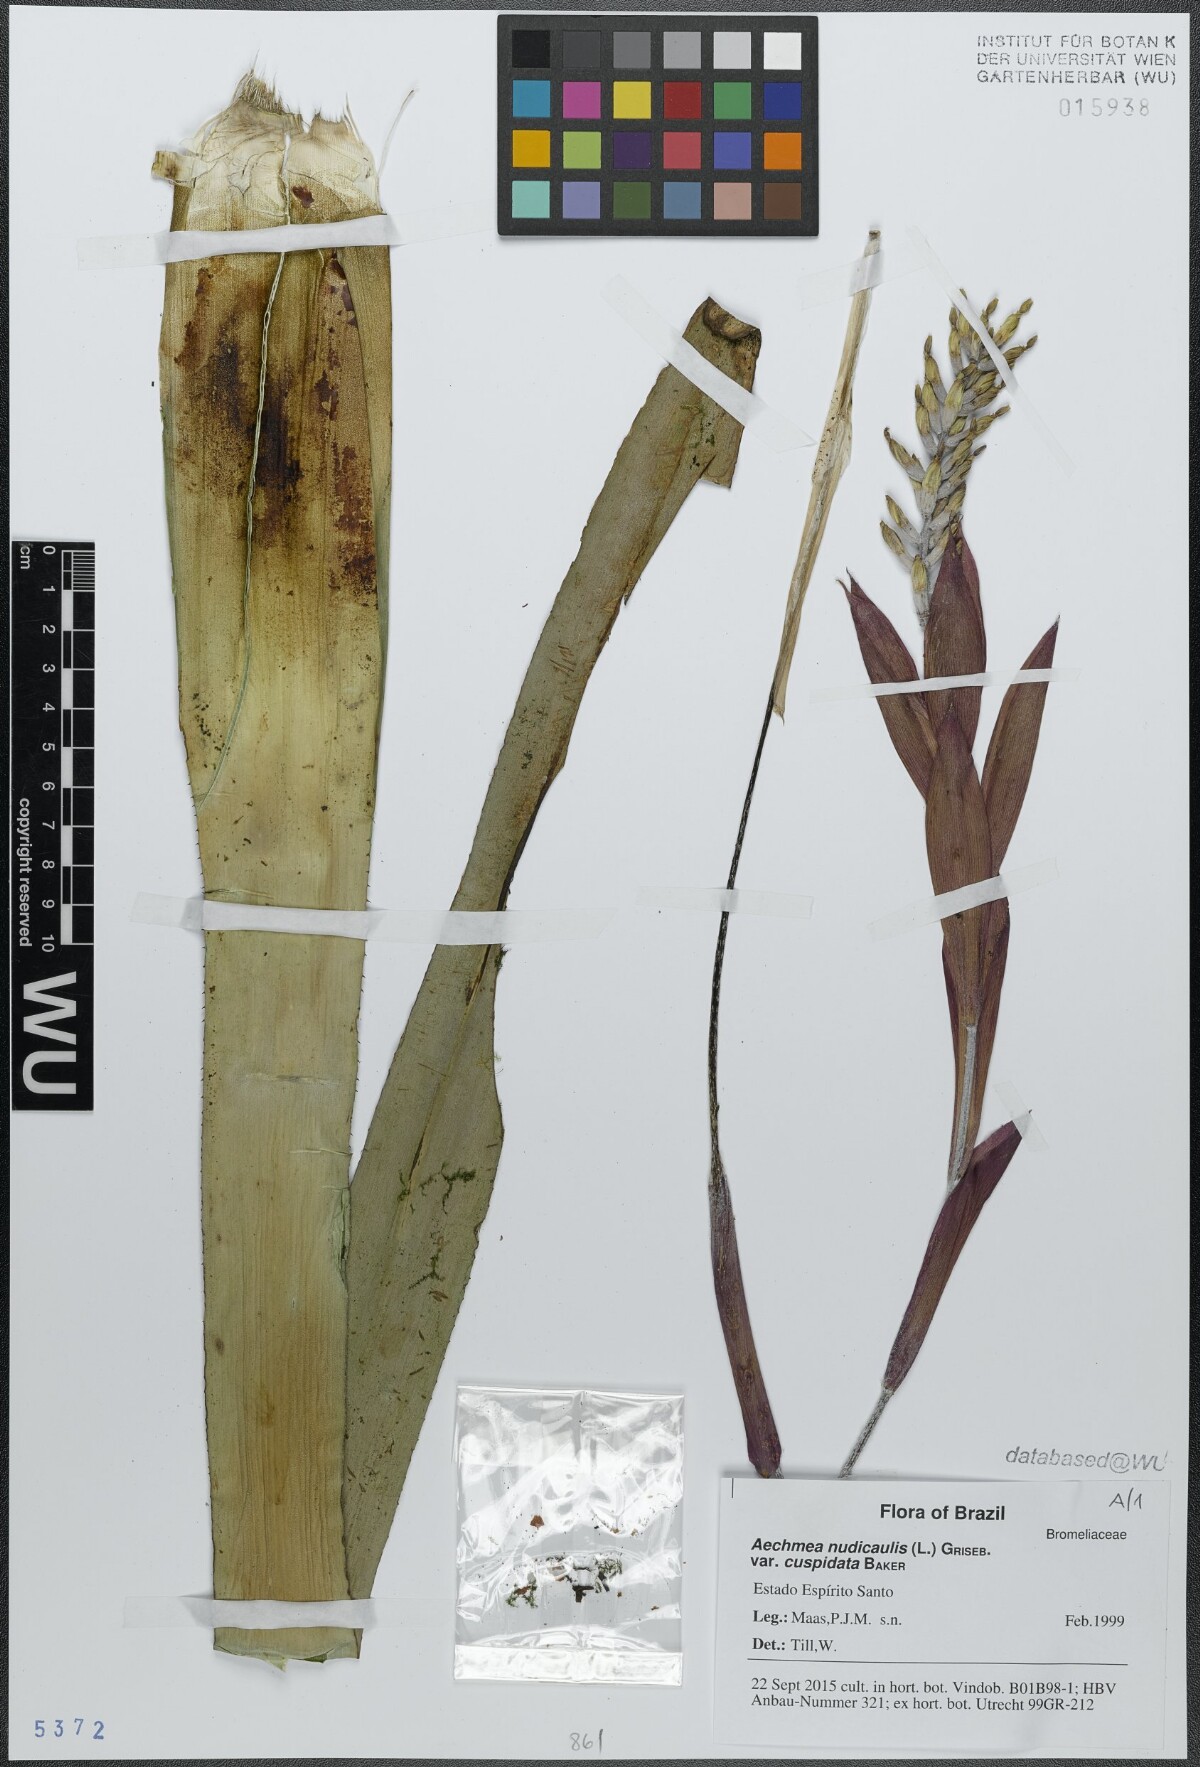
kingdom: Plantae
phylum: Tracheophyta
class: Liliopsida
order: Poales
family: Bromeliaceae
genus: Aechmea
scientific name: Aechmea nudicaulis
